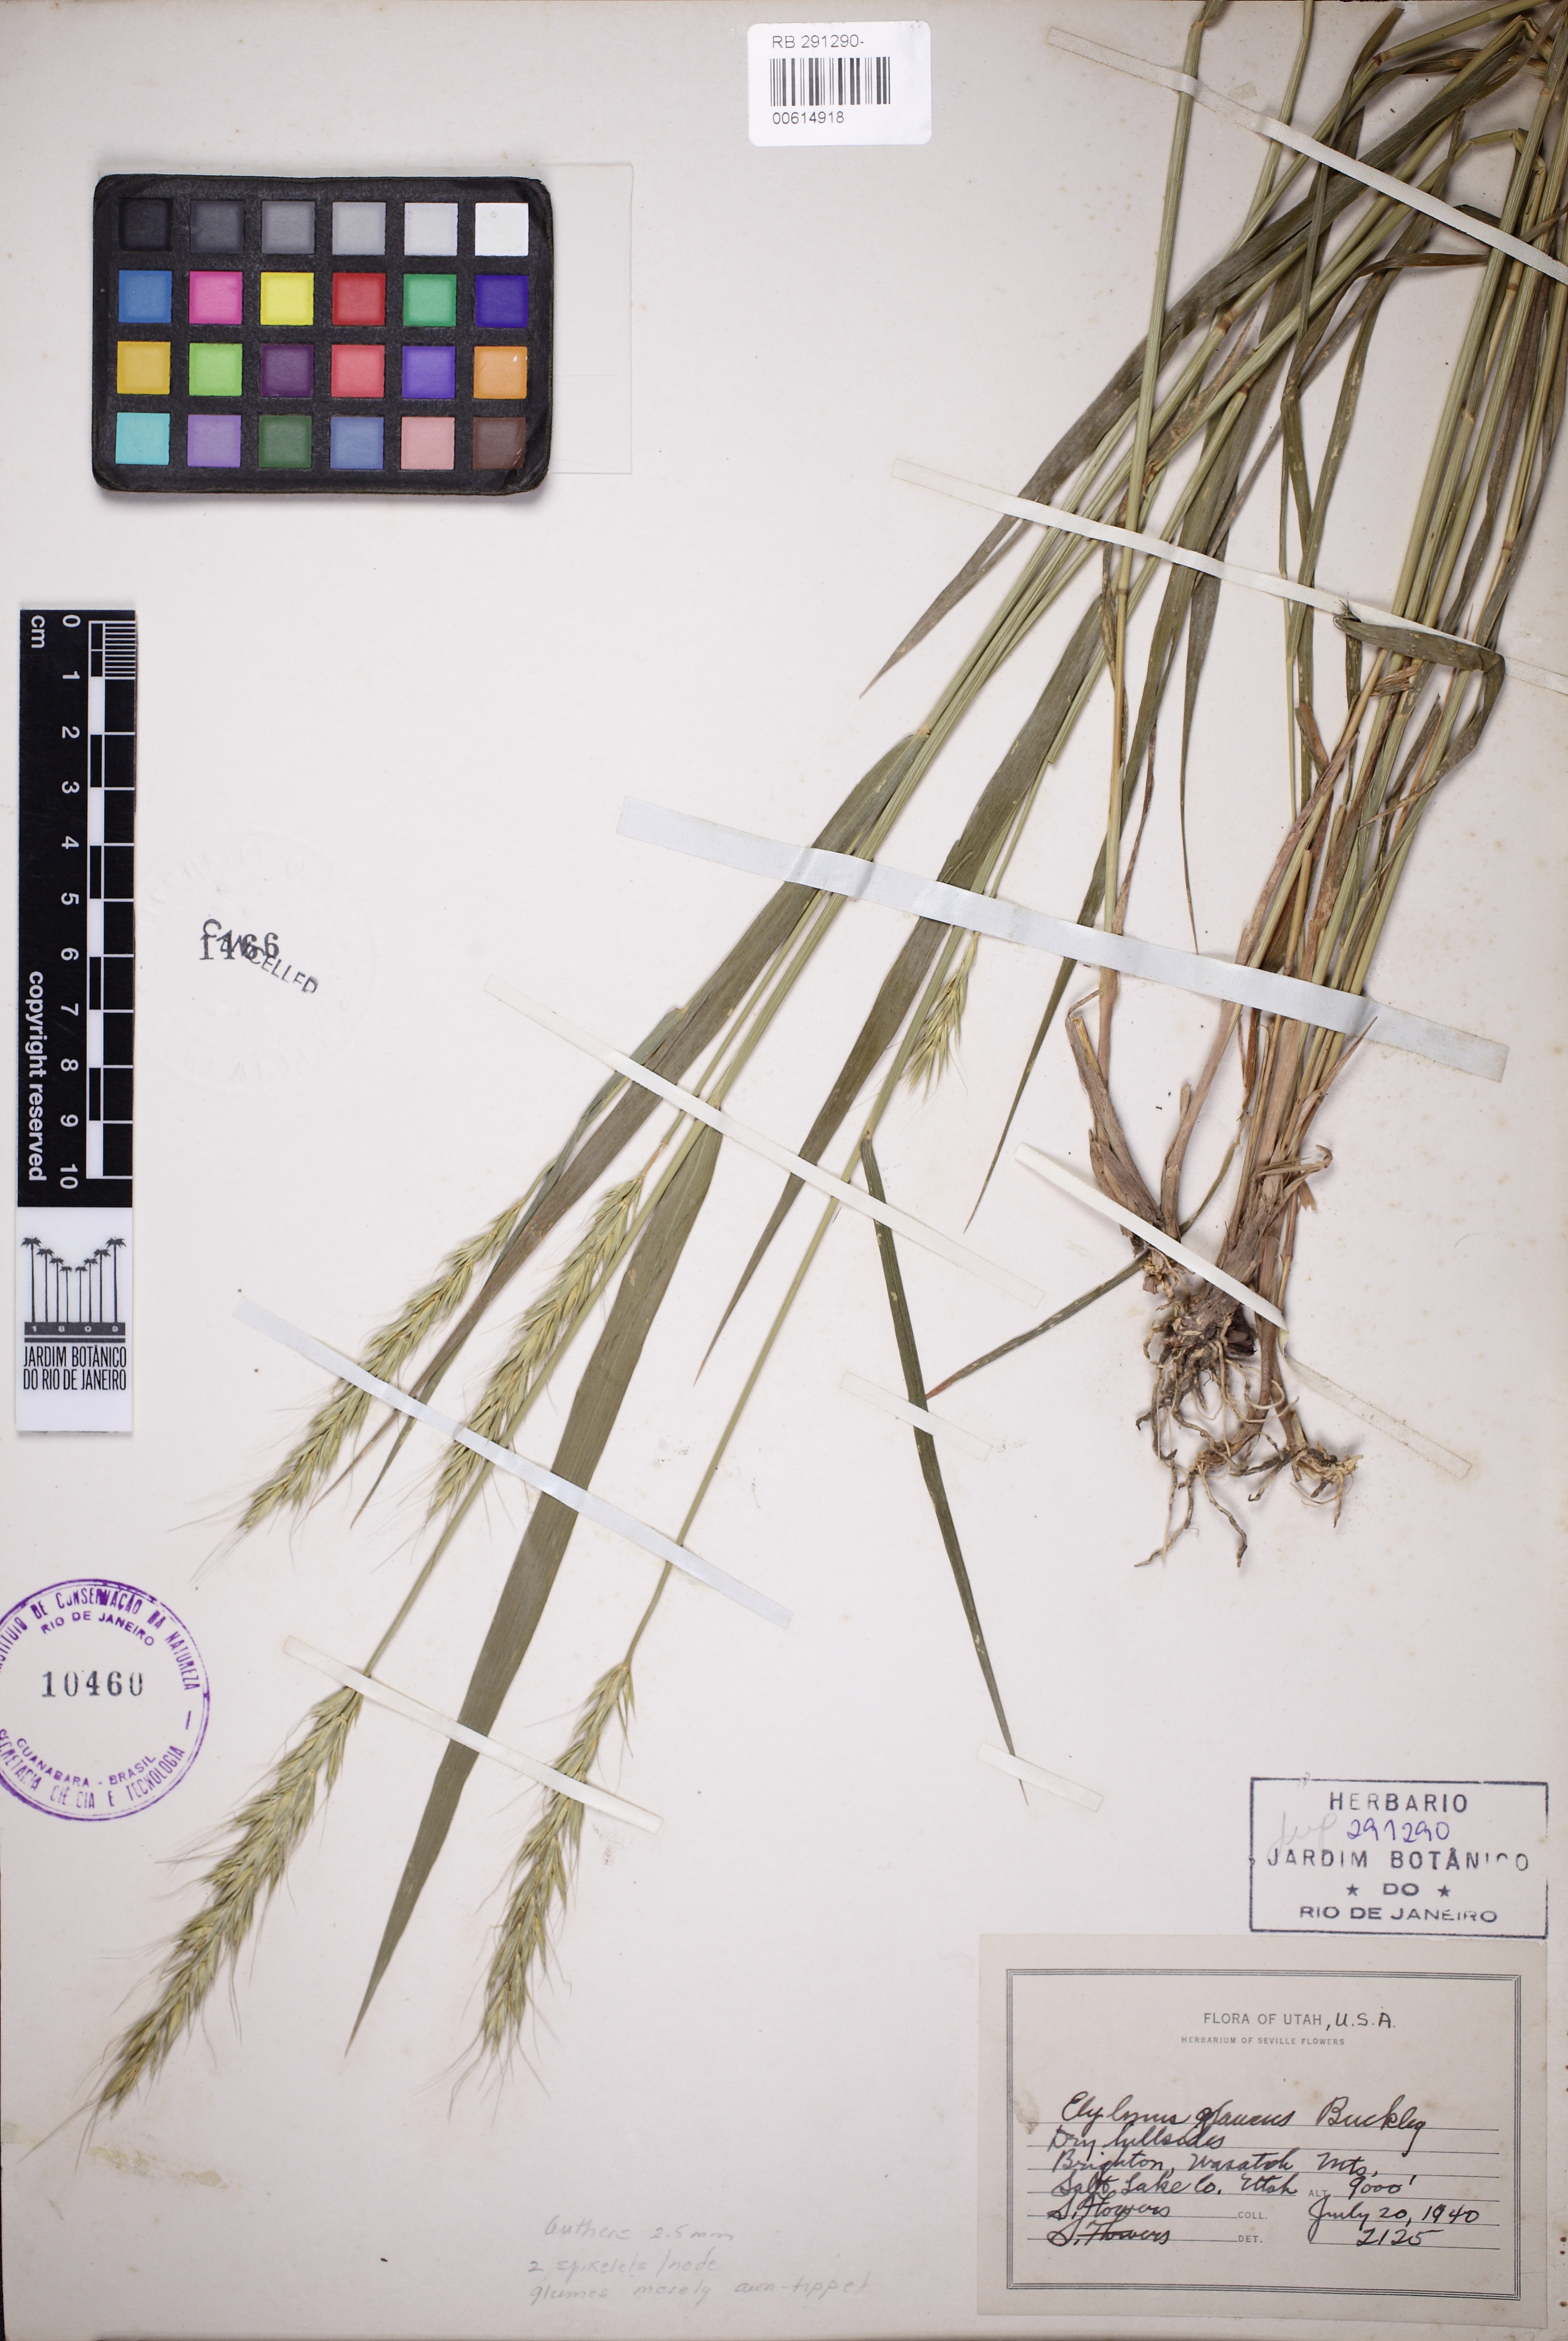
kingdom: Plantae
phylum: Tracheophyta
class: Liliopsida
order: Poales
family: Poaceae
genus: Elymus
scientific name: Elymus glaucus
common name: Blue wild rye
